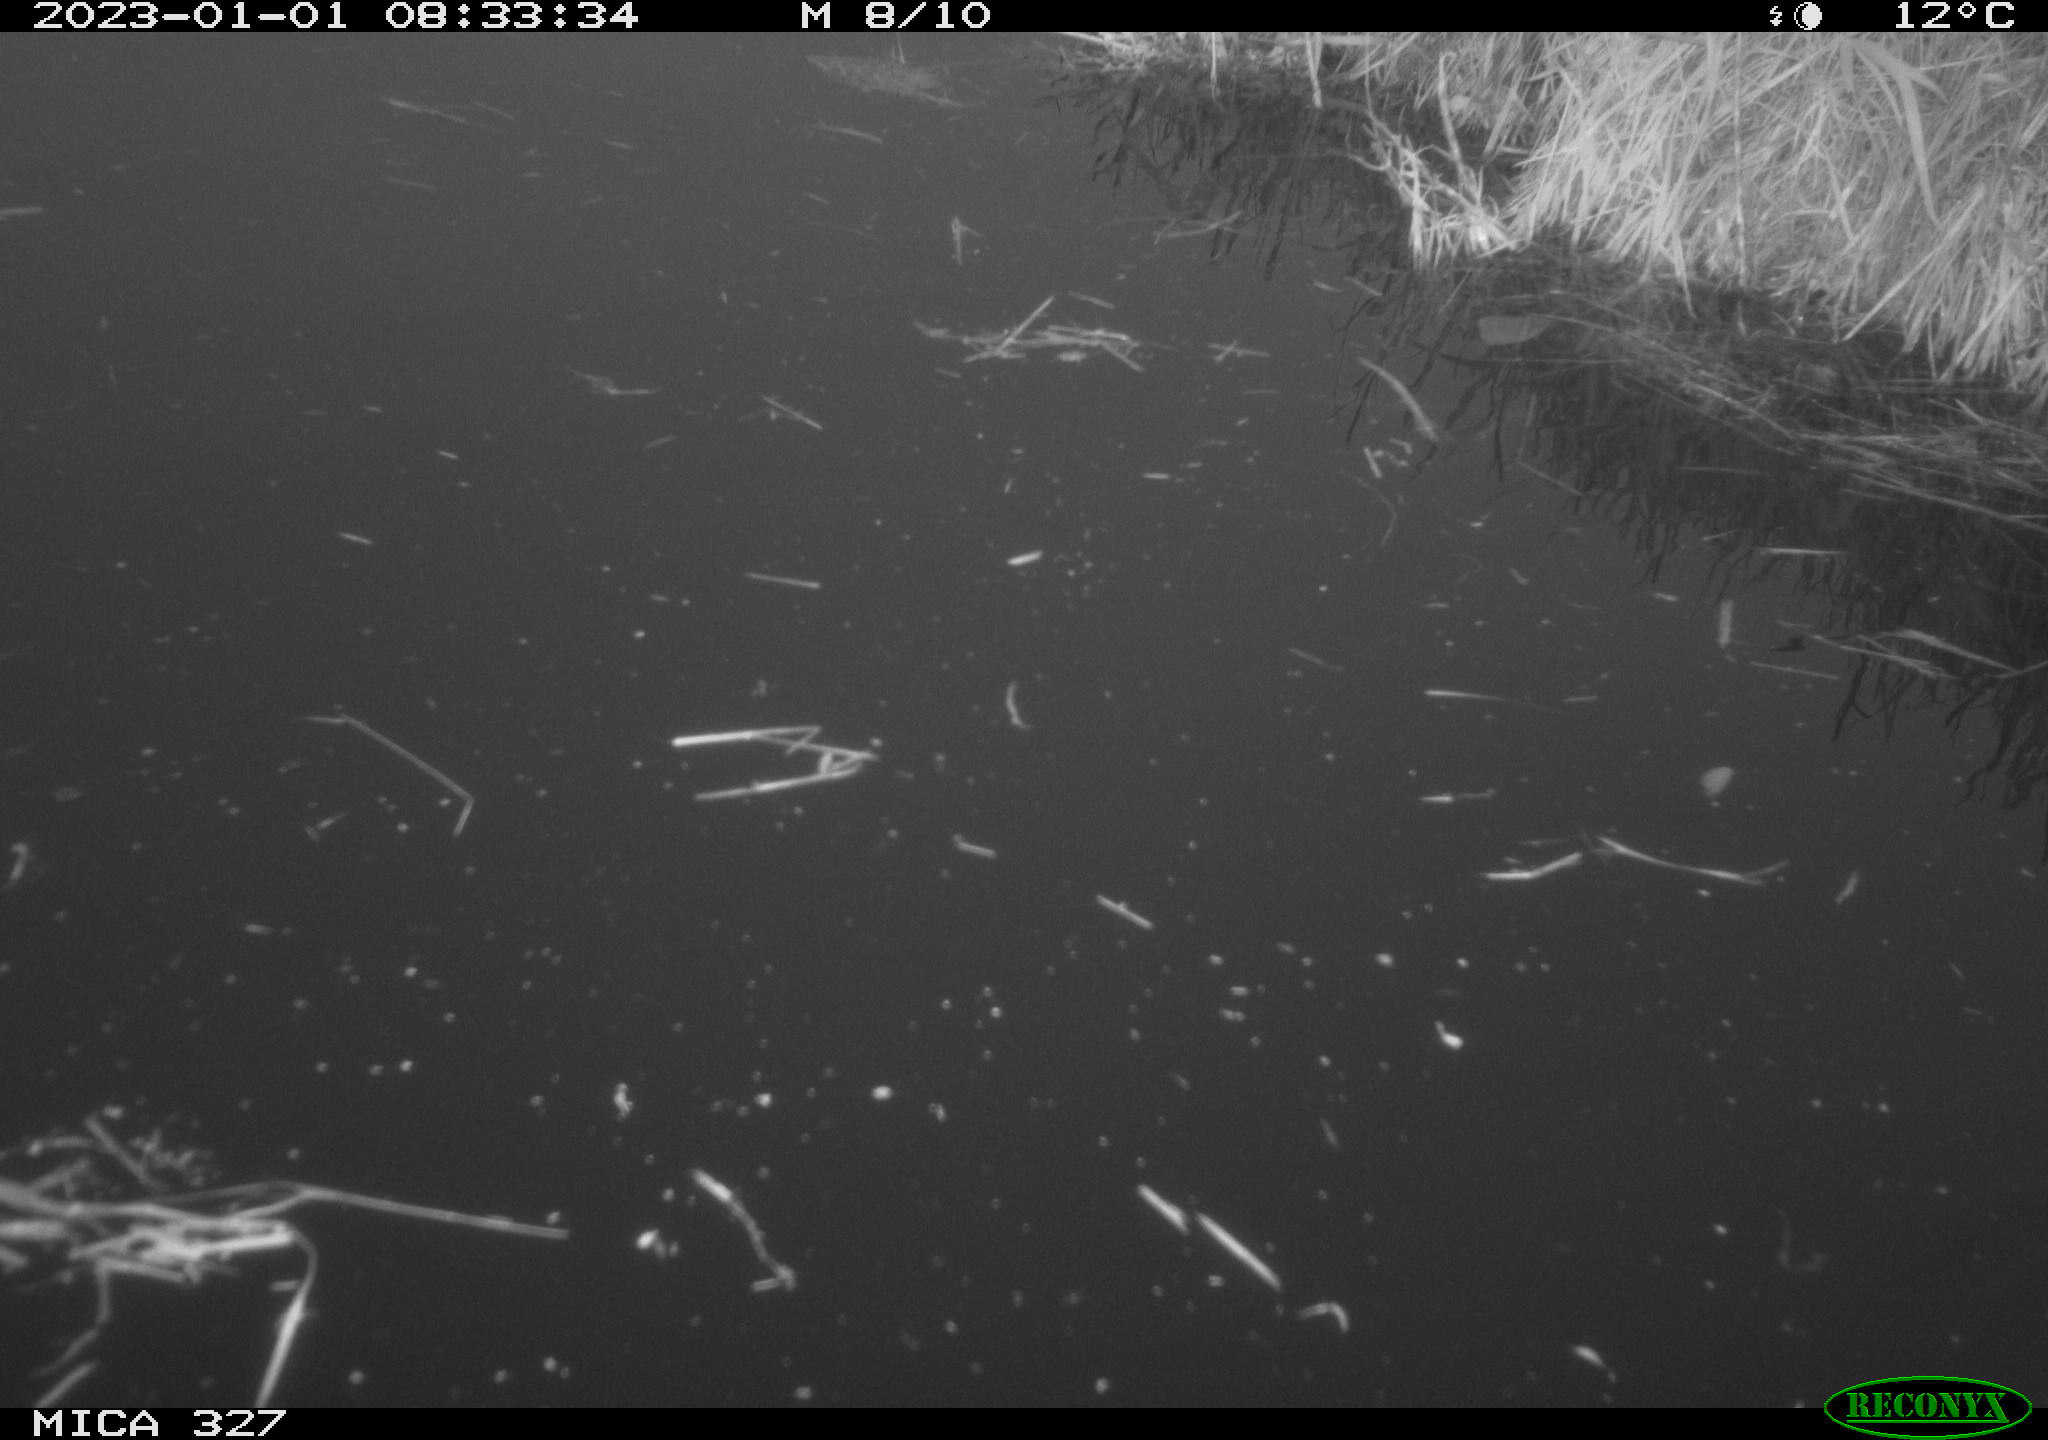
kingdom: Animalia
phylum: Chordata
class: Aves
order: Gruiformes
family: Rallidae
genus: Gallinula
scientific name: Gallinula chloropus
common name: Common moorhen
